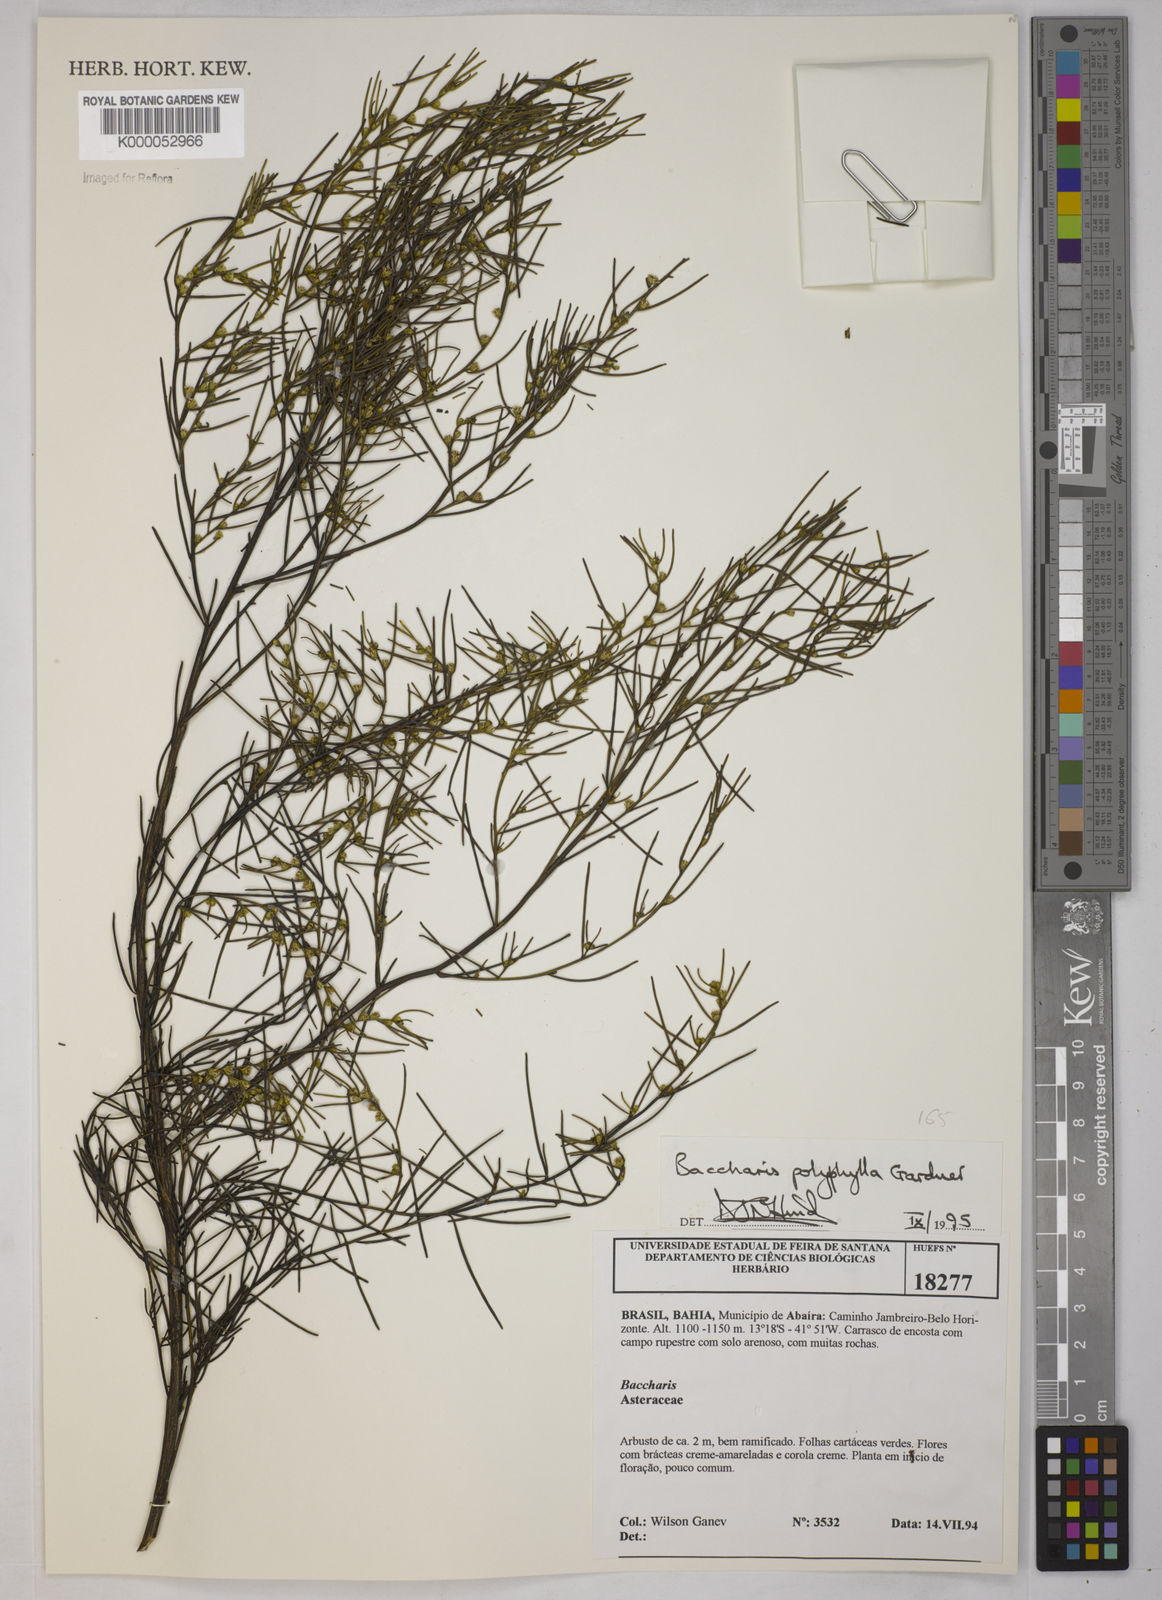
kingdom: Plantae
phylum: Tracheophyta
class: Magnoliopsida
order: Asterales
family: Asteraceae
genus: Baccharis
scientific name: Baccharis polyphylla
